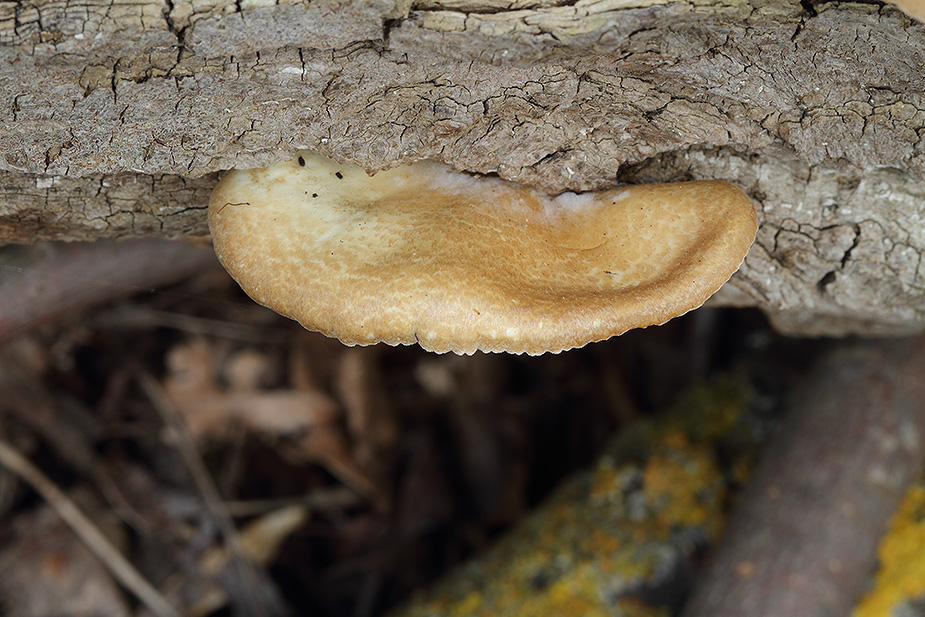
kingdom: Fungi
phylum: Basidiomycota
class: Agaricomycetes
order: Agaricales
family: Crepidotaceae
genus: Crepidotus
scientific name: Crepidotus calolepis
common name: småskællet muslingesvamp
